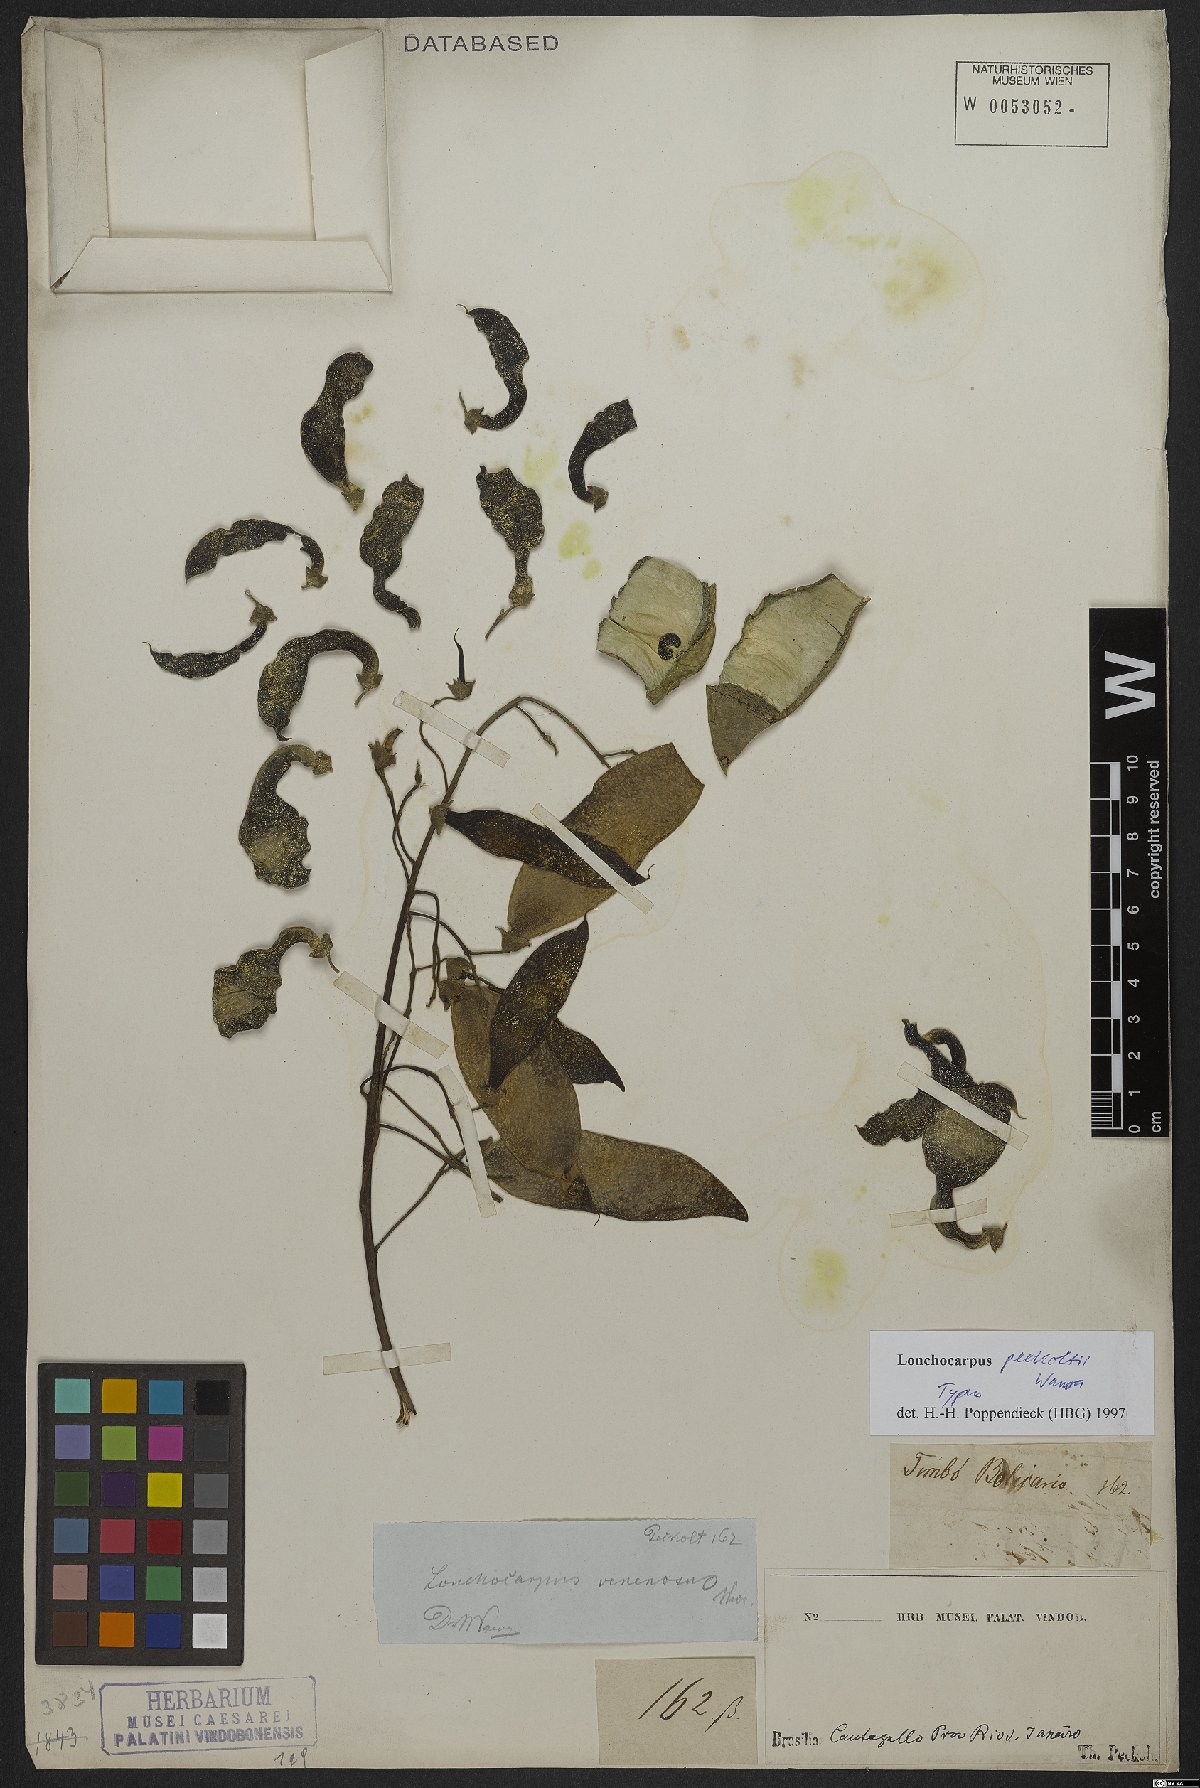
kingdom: Plantae
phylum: Tracheophyta
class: Magnoliopsida
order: Fabales
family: Fabaceae
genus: Dahlstedtia
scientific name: Dahlstedtia peckoltii
